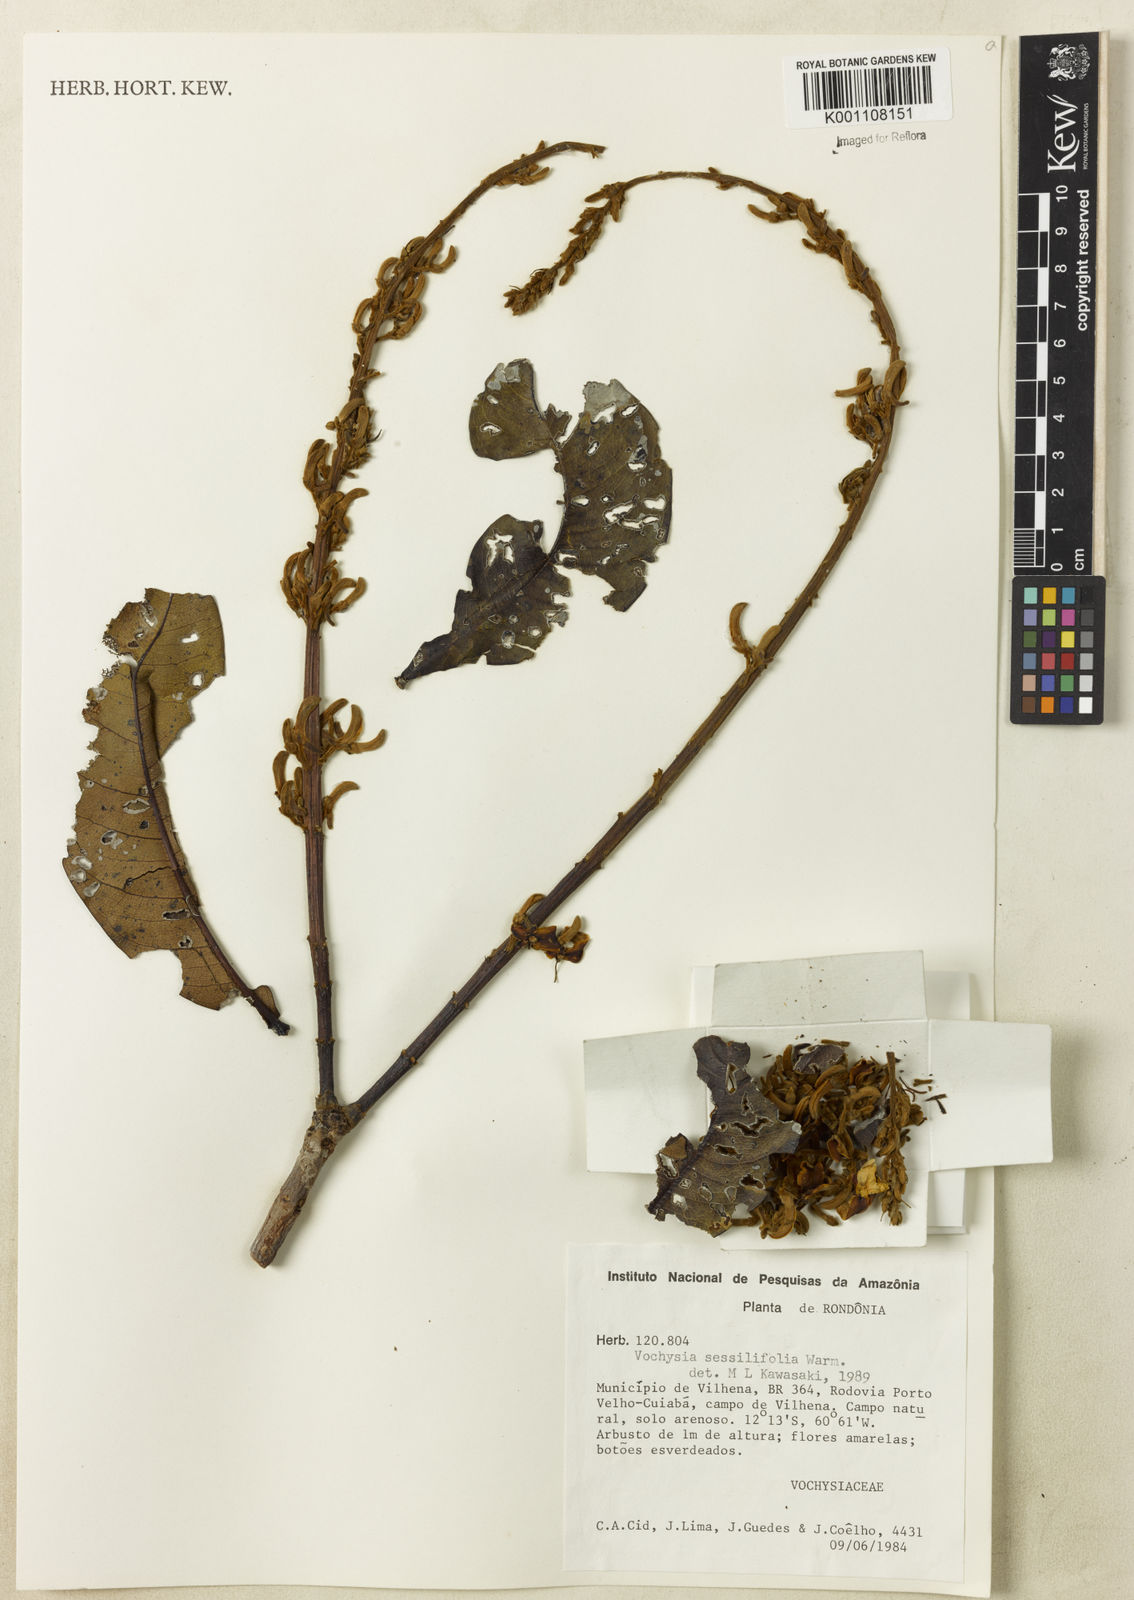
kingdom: Plantae
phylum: Tracheophyta
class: Magnoliopsida
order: Myrtales
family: Vochysiaceae
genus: Vochysia
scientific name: Vochysia sessilifolia
